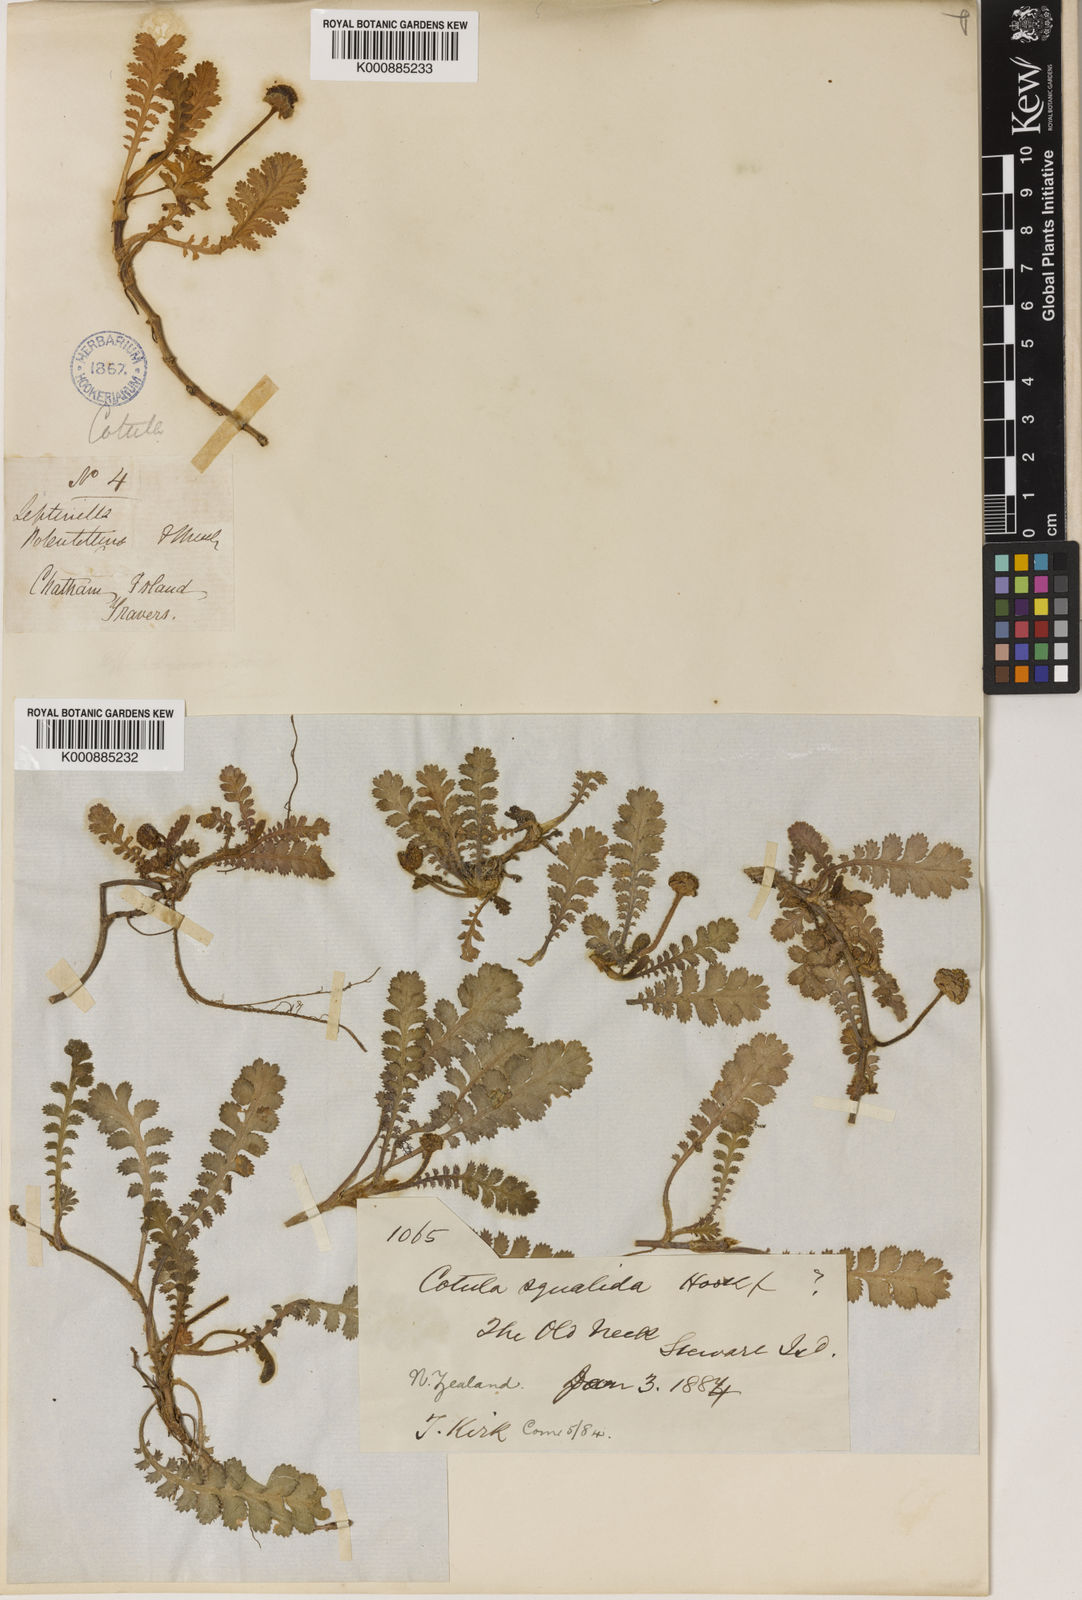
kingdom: Plantae
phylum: Tracheophyta
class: Magnoliopsida
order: Asterales
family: Asteraceae
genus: Leptinella
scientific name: Leptinella
